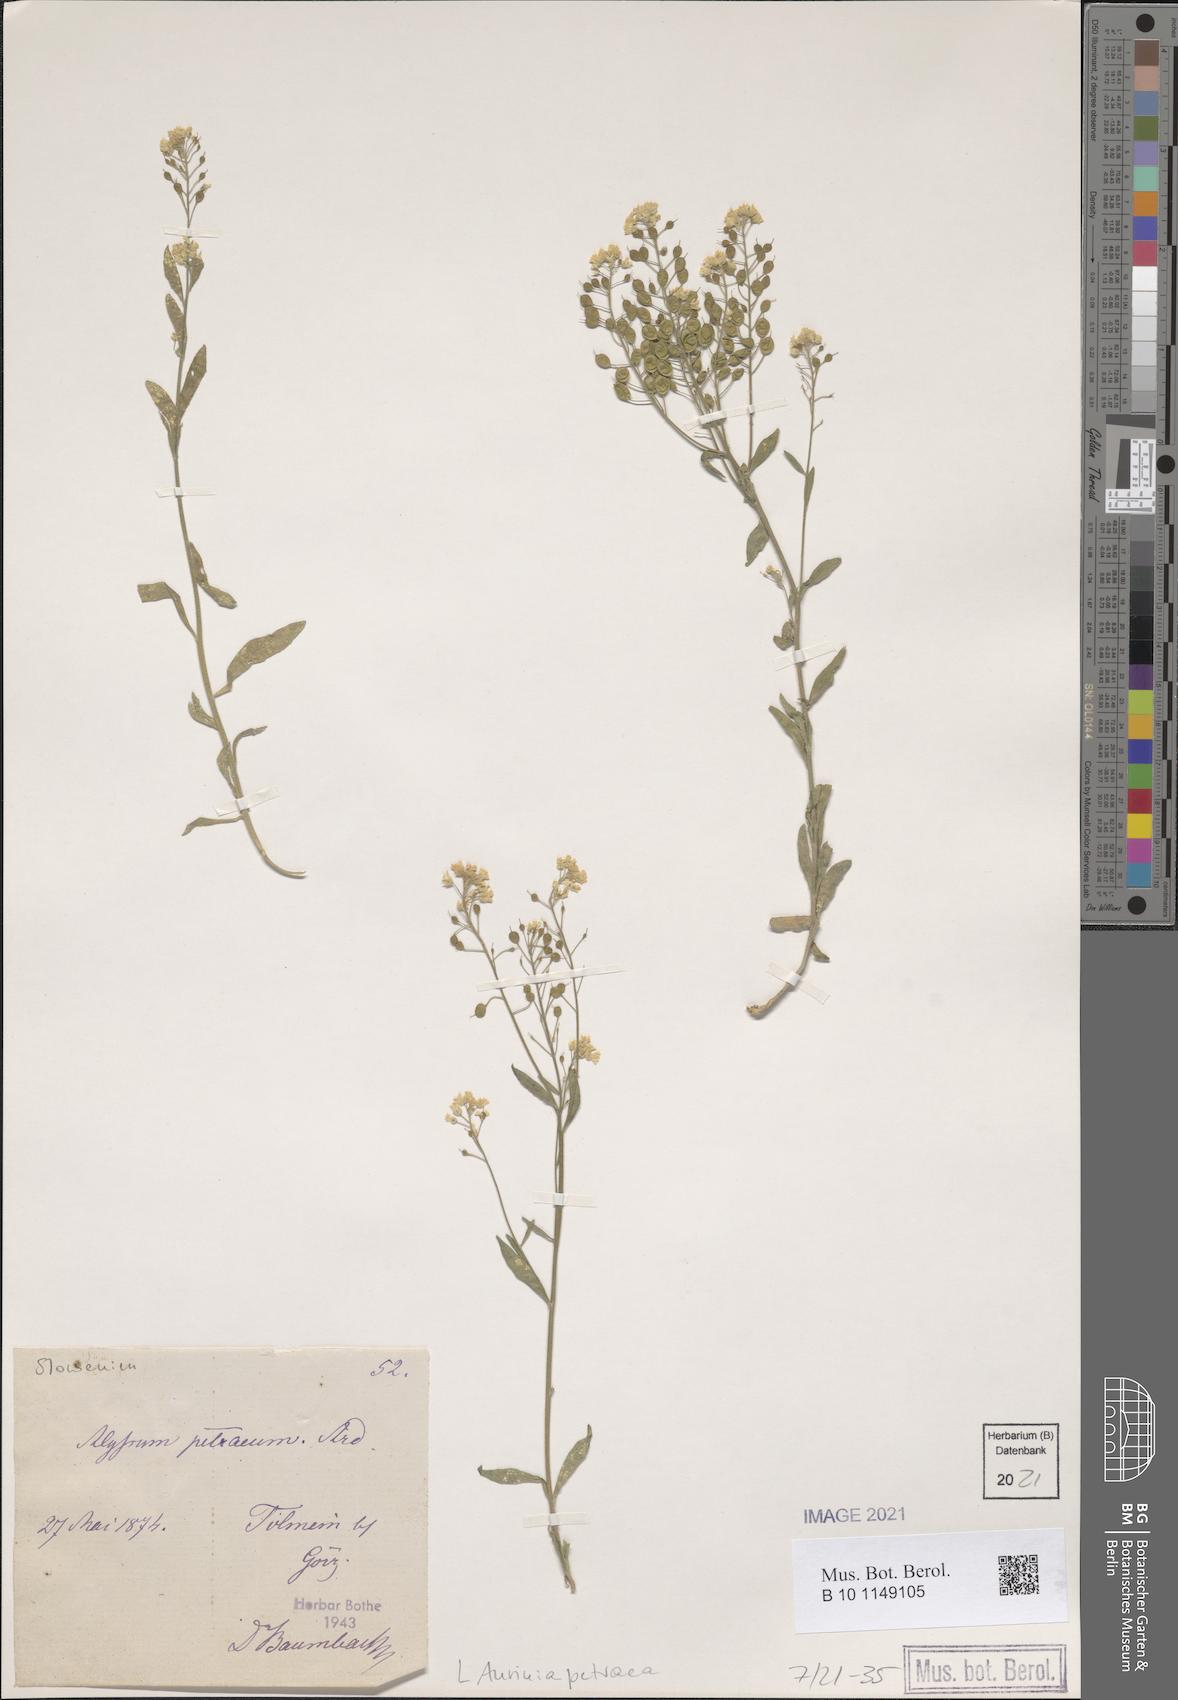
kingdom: Plantae
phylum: Tracheophyta
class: Magnoliopsida
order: Brassicales
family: Brassicaceae
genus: Aurinia
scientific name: Aurinia petraea
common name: Goldentuft
